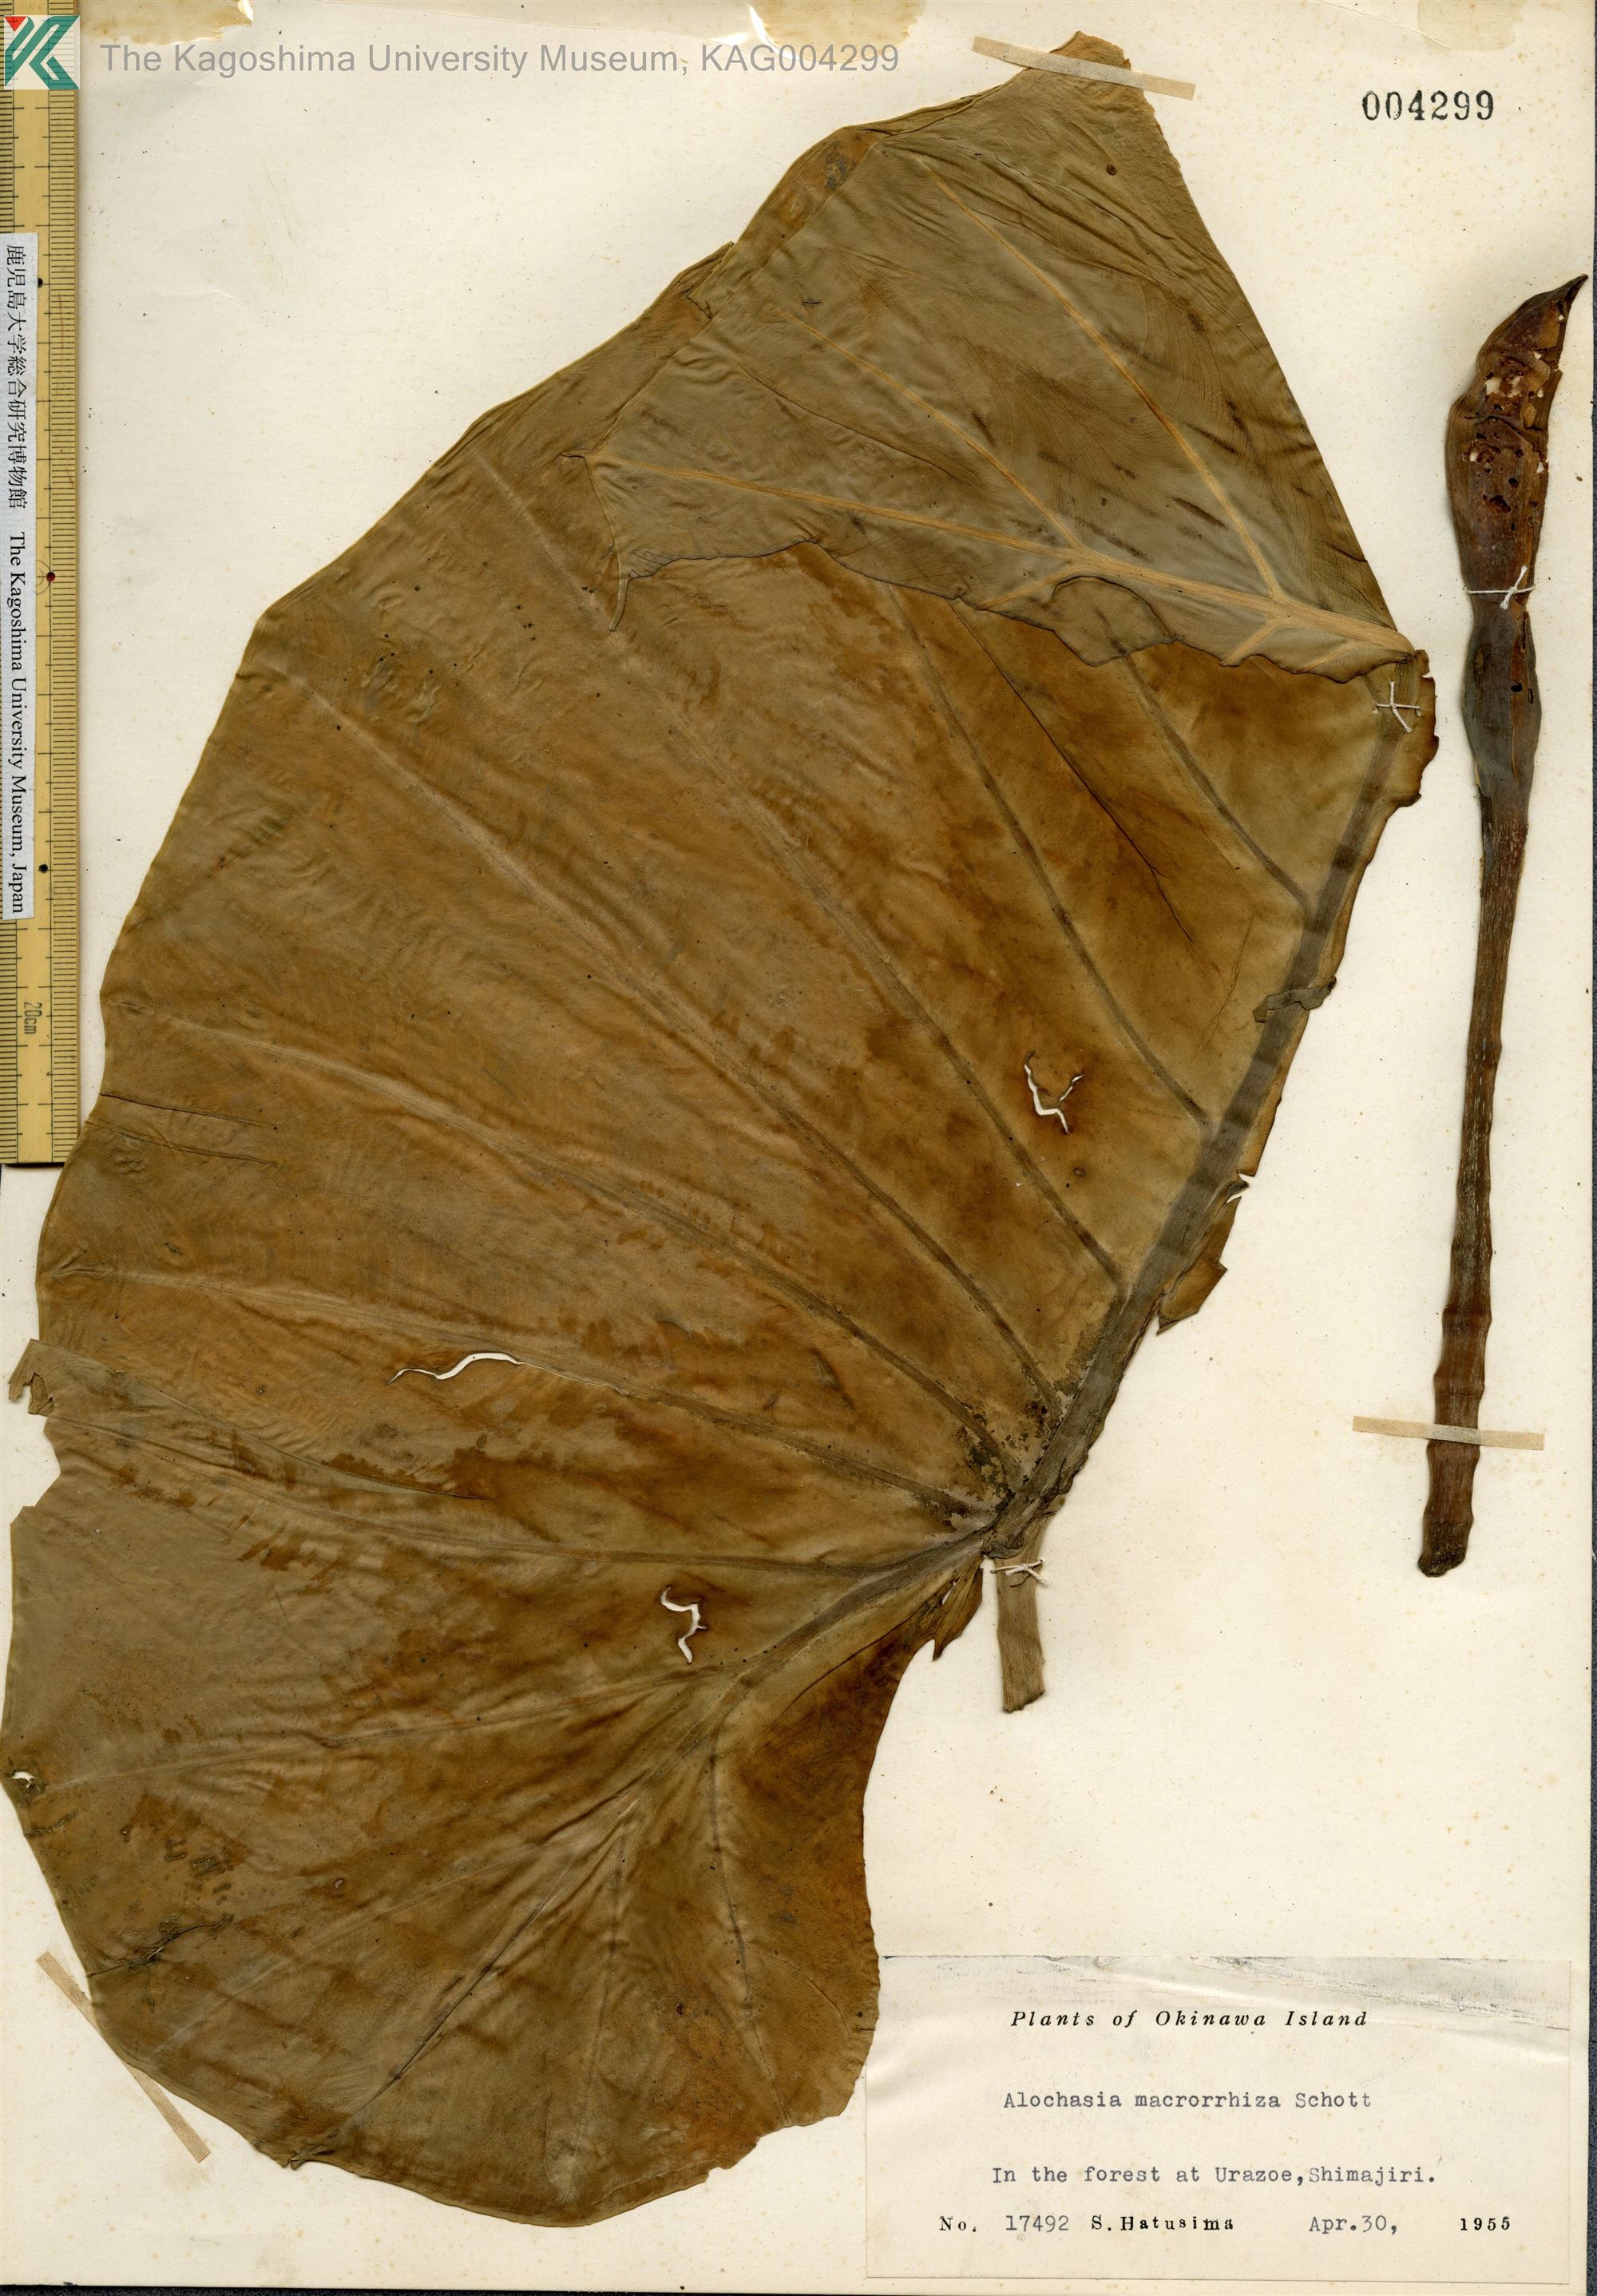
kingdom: Plantae
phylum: Tracheophyta
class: Liliopsida
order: Alismatales
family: Araceae
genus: Alocasia
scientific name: Alocasia odora
